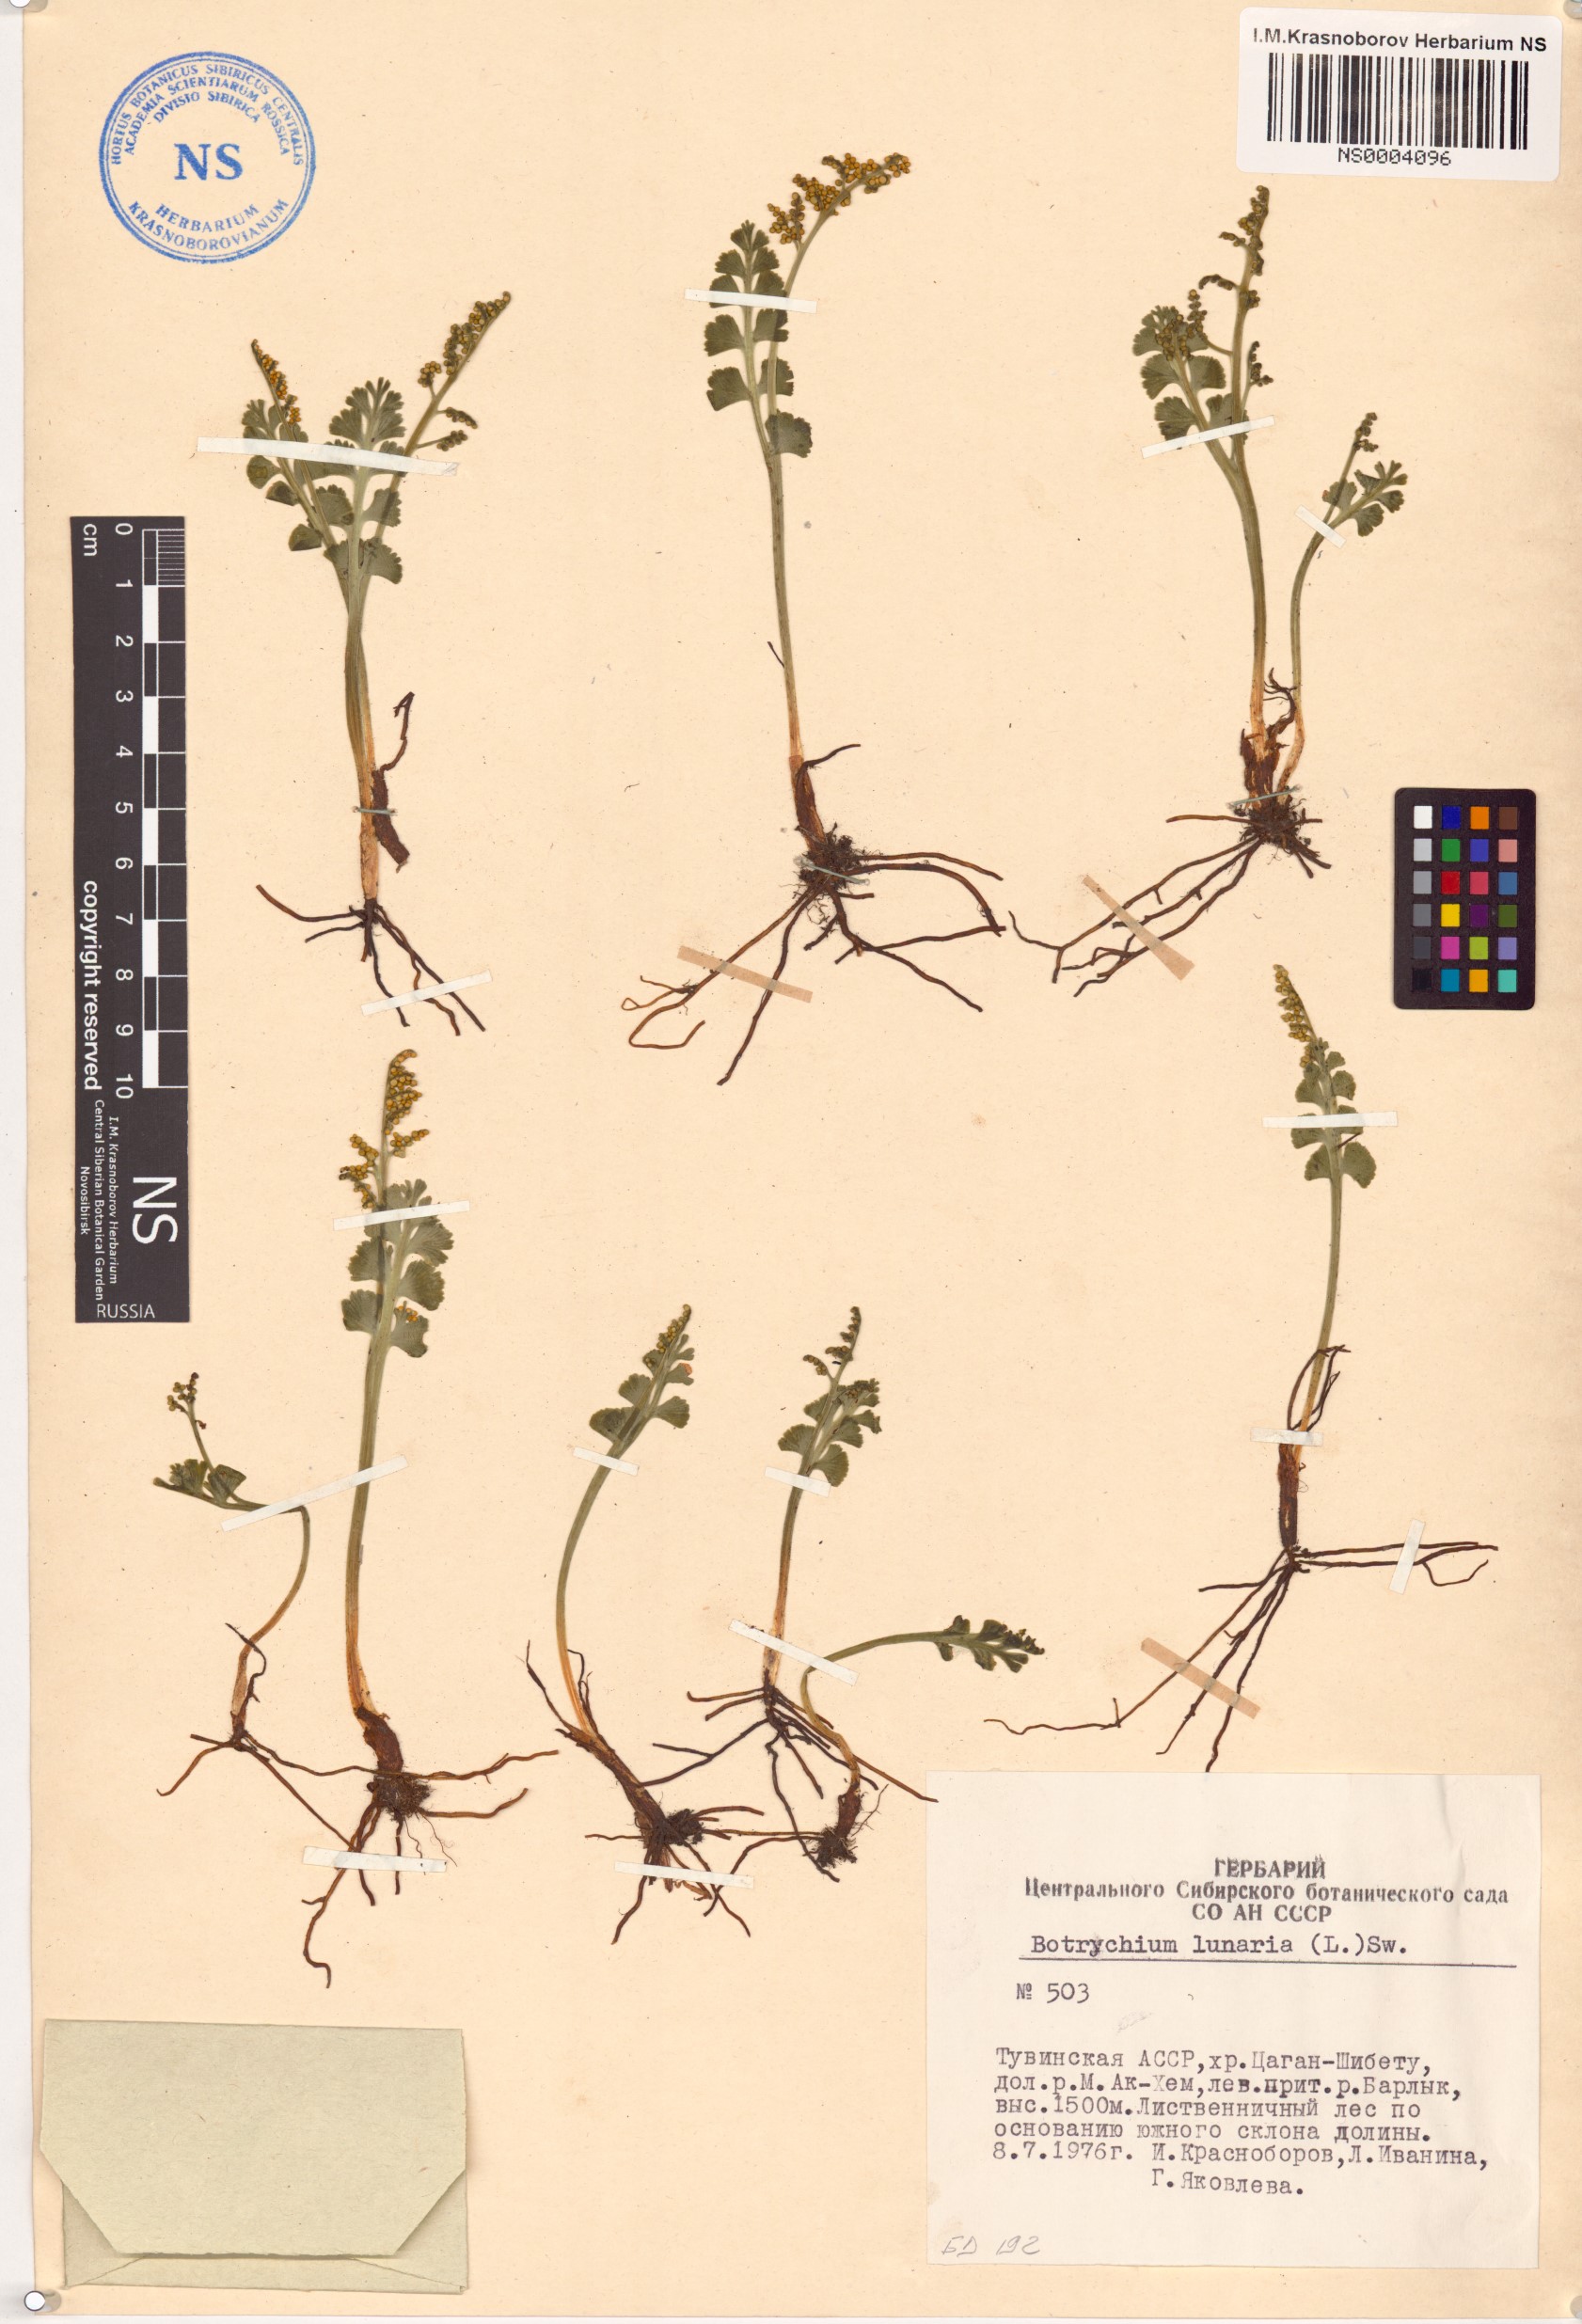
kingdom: Plantae
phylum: Tracheophyta
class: Polypodiopsida
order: Ophioglossales
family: Ophioglossaceae
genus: Botrychium
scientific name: Botrychium lunaria
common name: Moonwort
